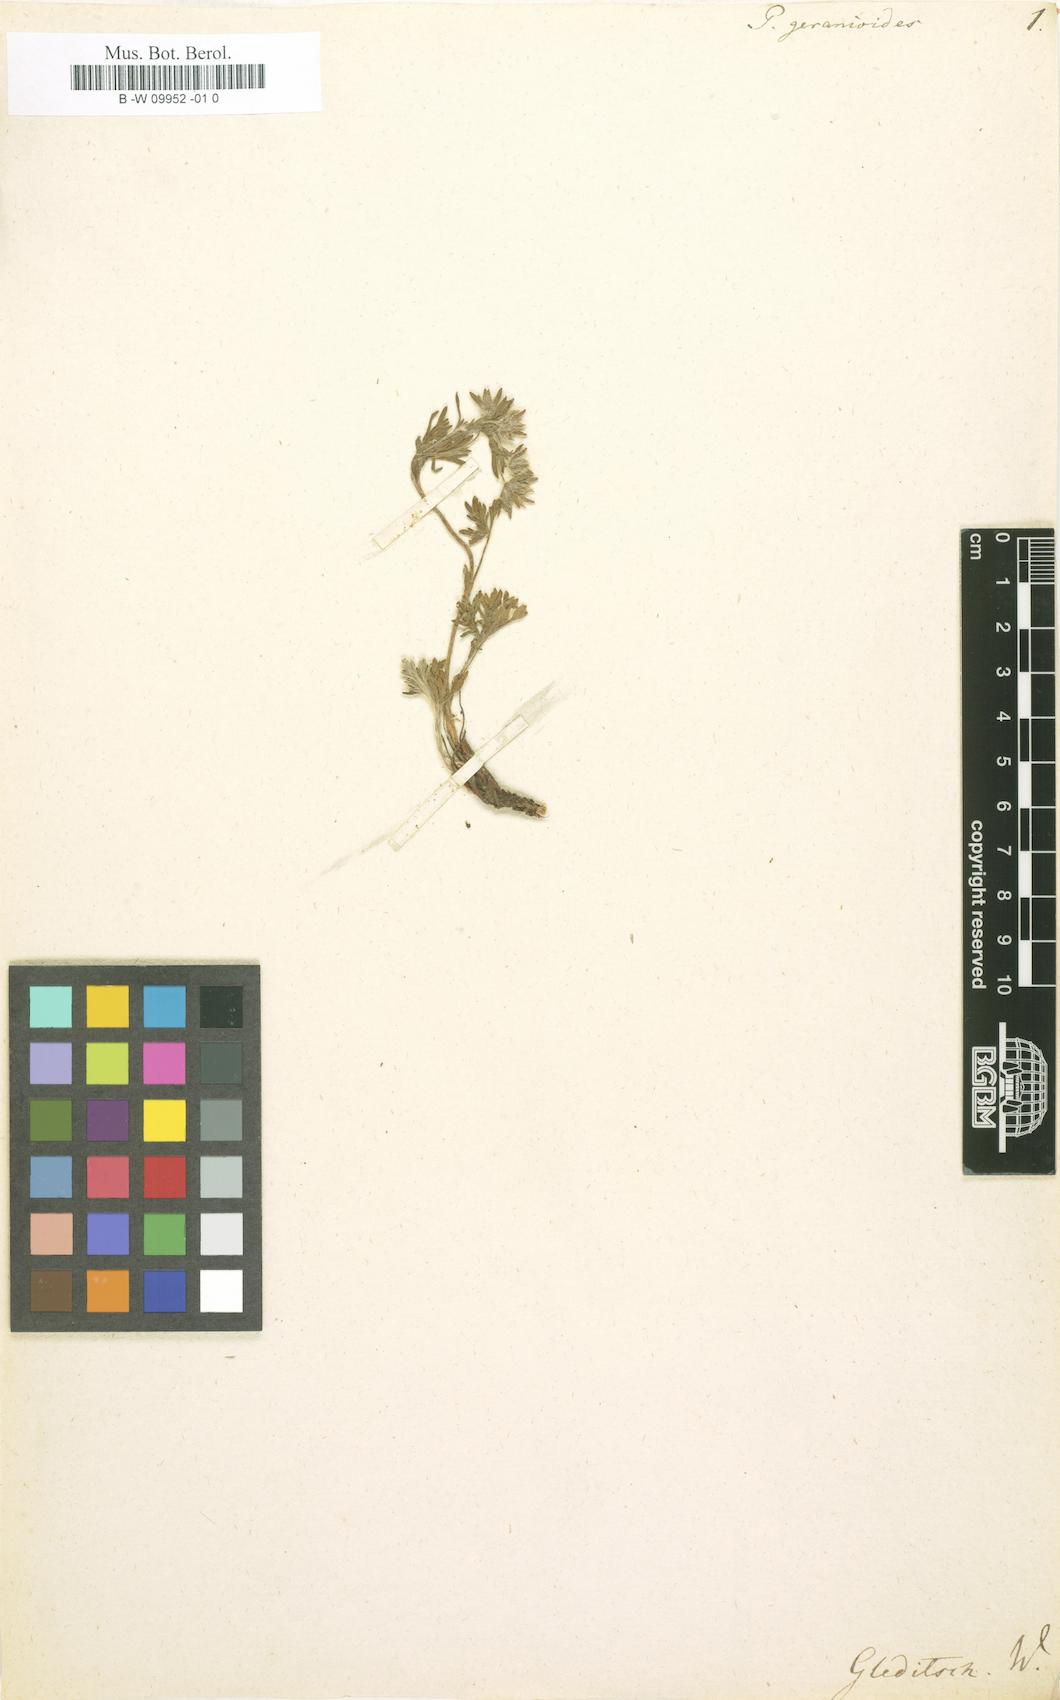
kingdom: Plantae
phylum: Tracheophyta
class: Magnoliopsida
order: Rosales
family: Rosaceae
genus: Potentilla
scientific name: Potentilla geranioides
